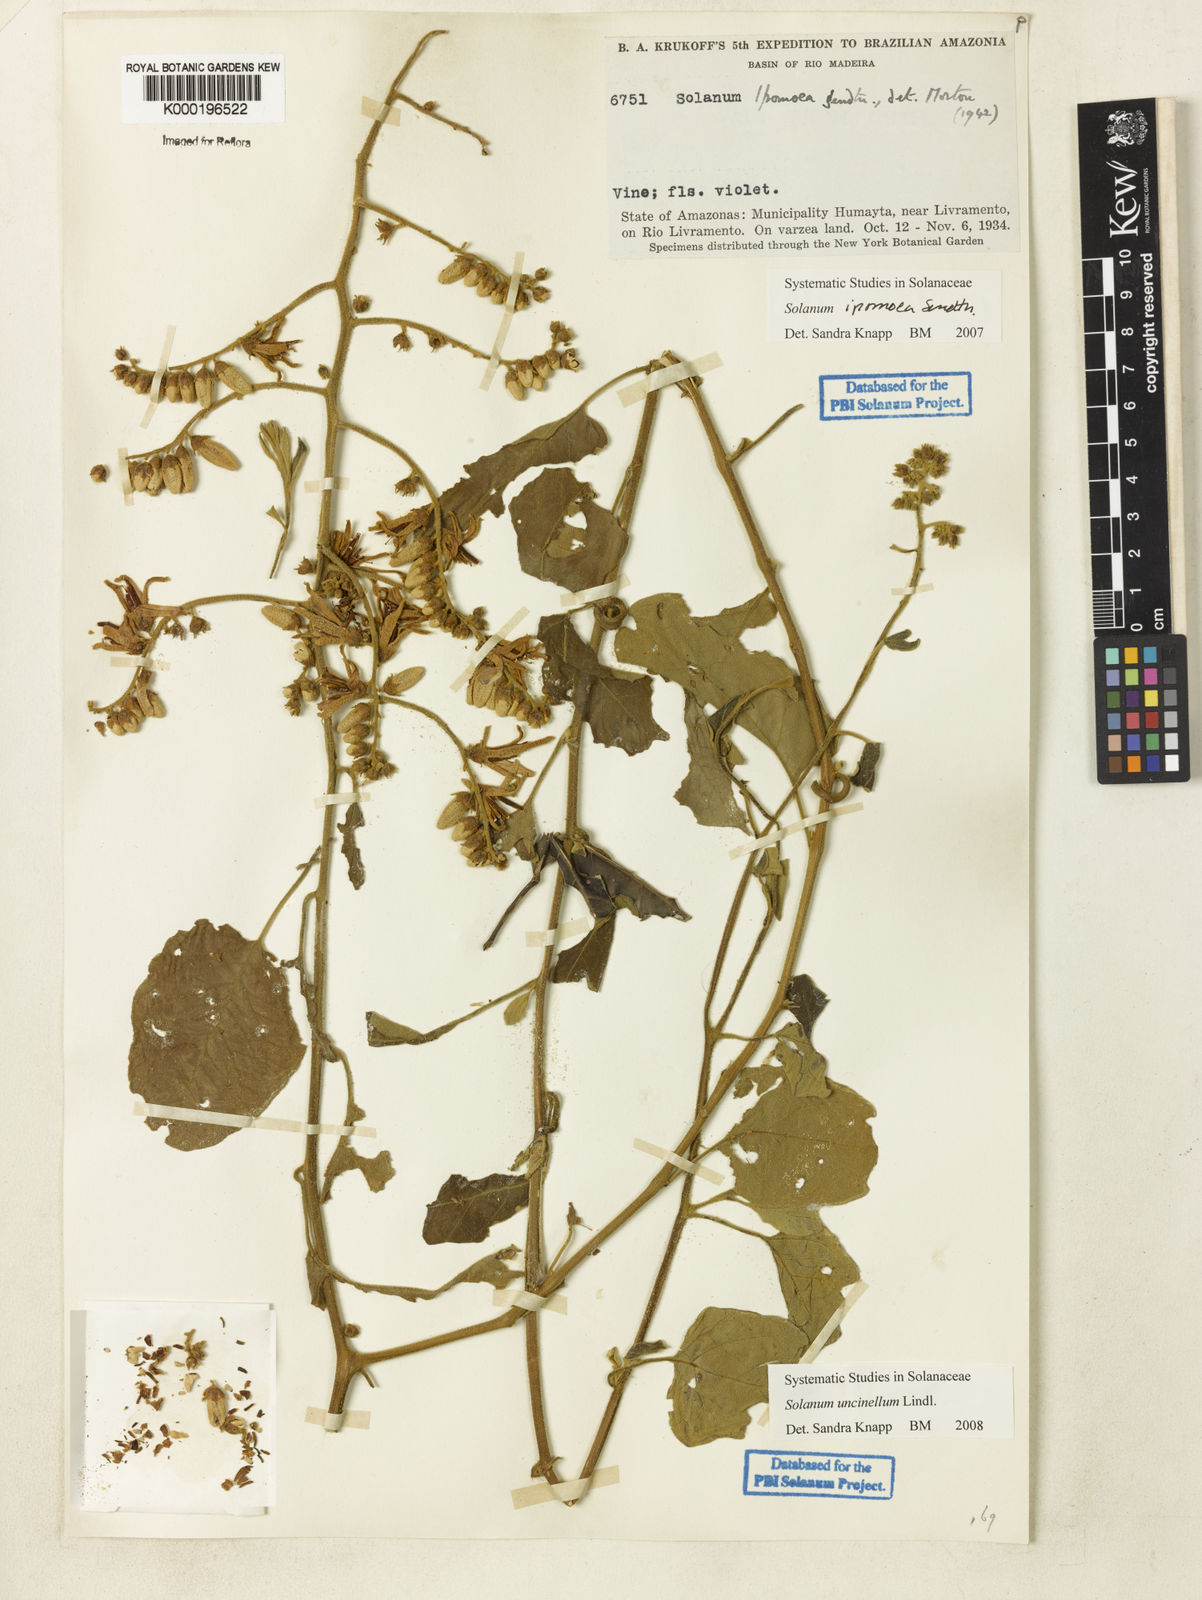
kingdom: Plantae
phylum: Tracheophyta
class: Magnoliopsida
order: Solanales
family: Solanaceae
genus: Solanum
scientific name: Solanum uncinellum
